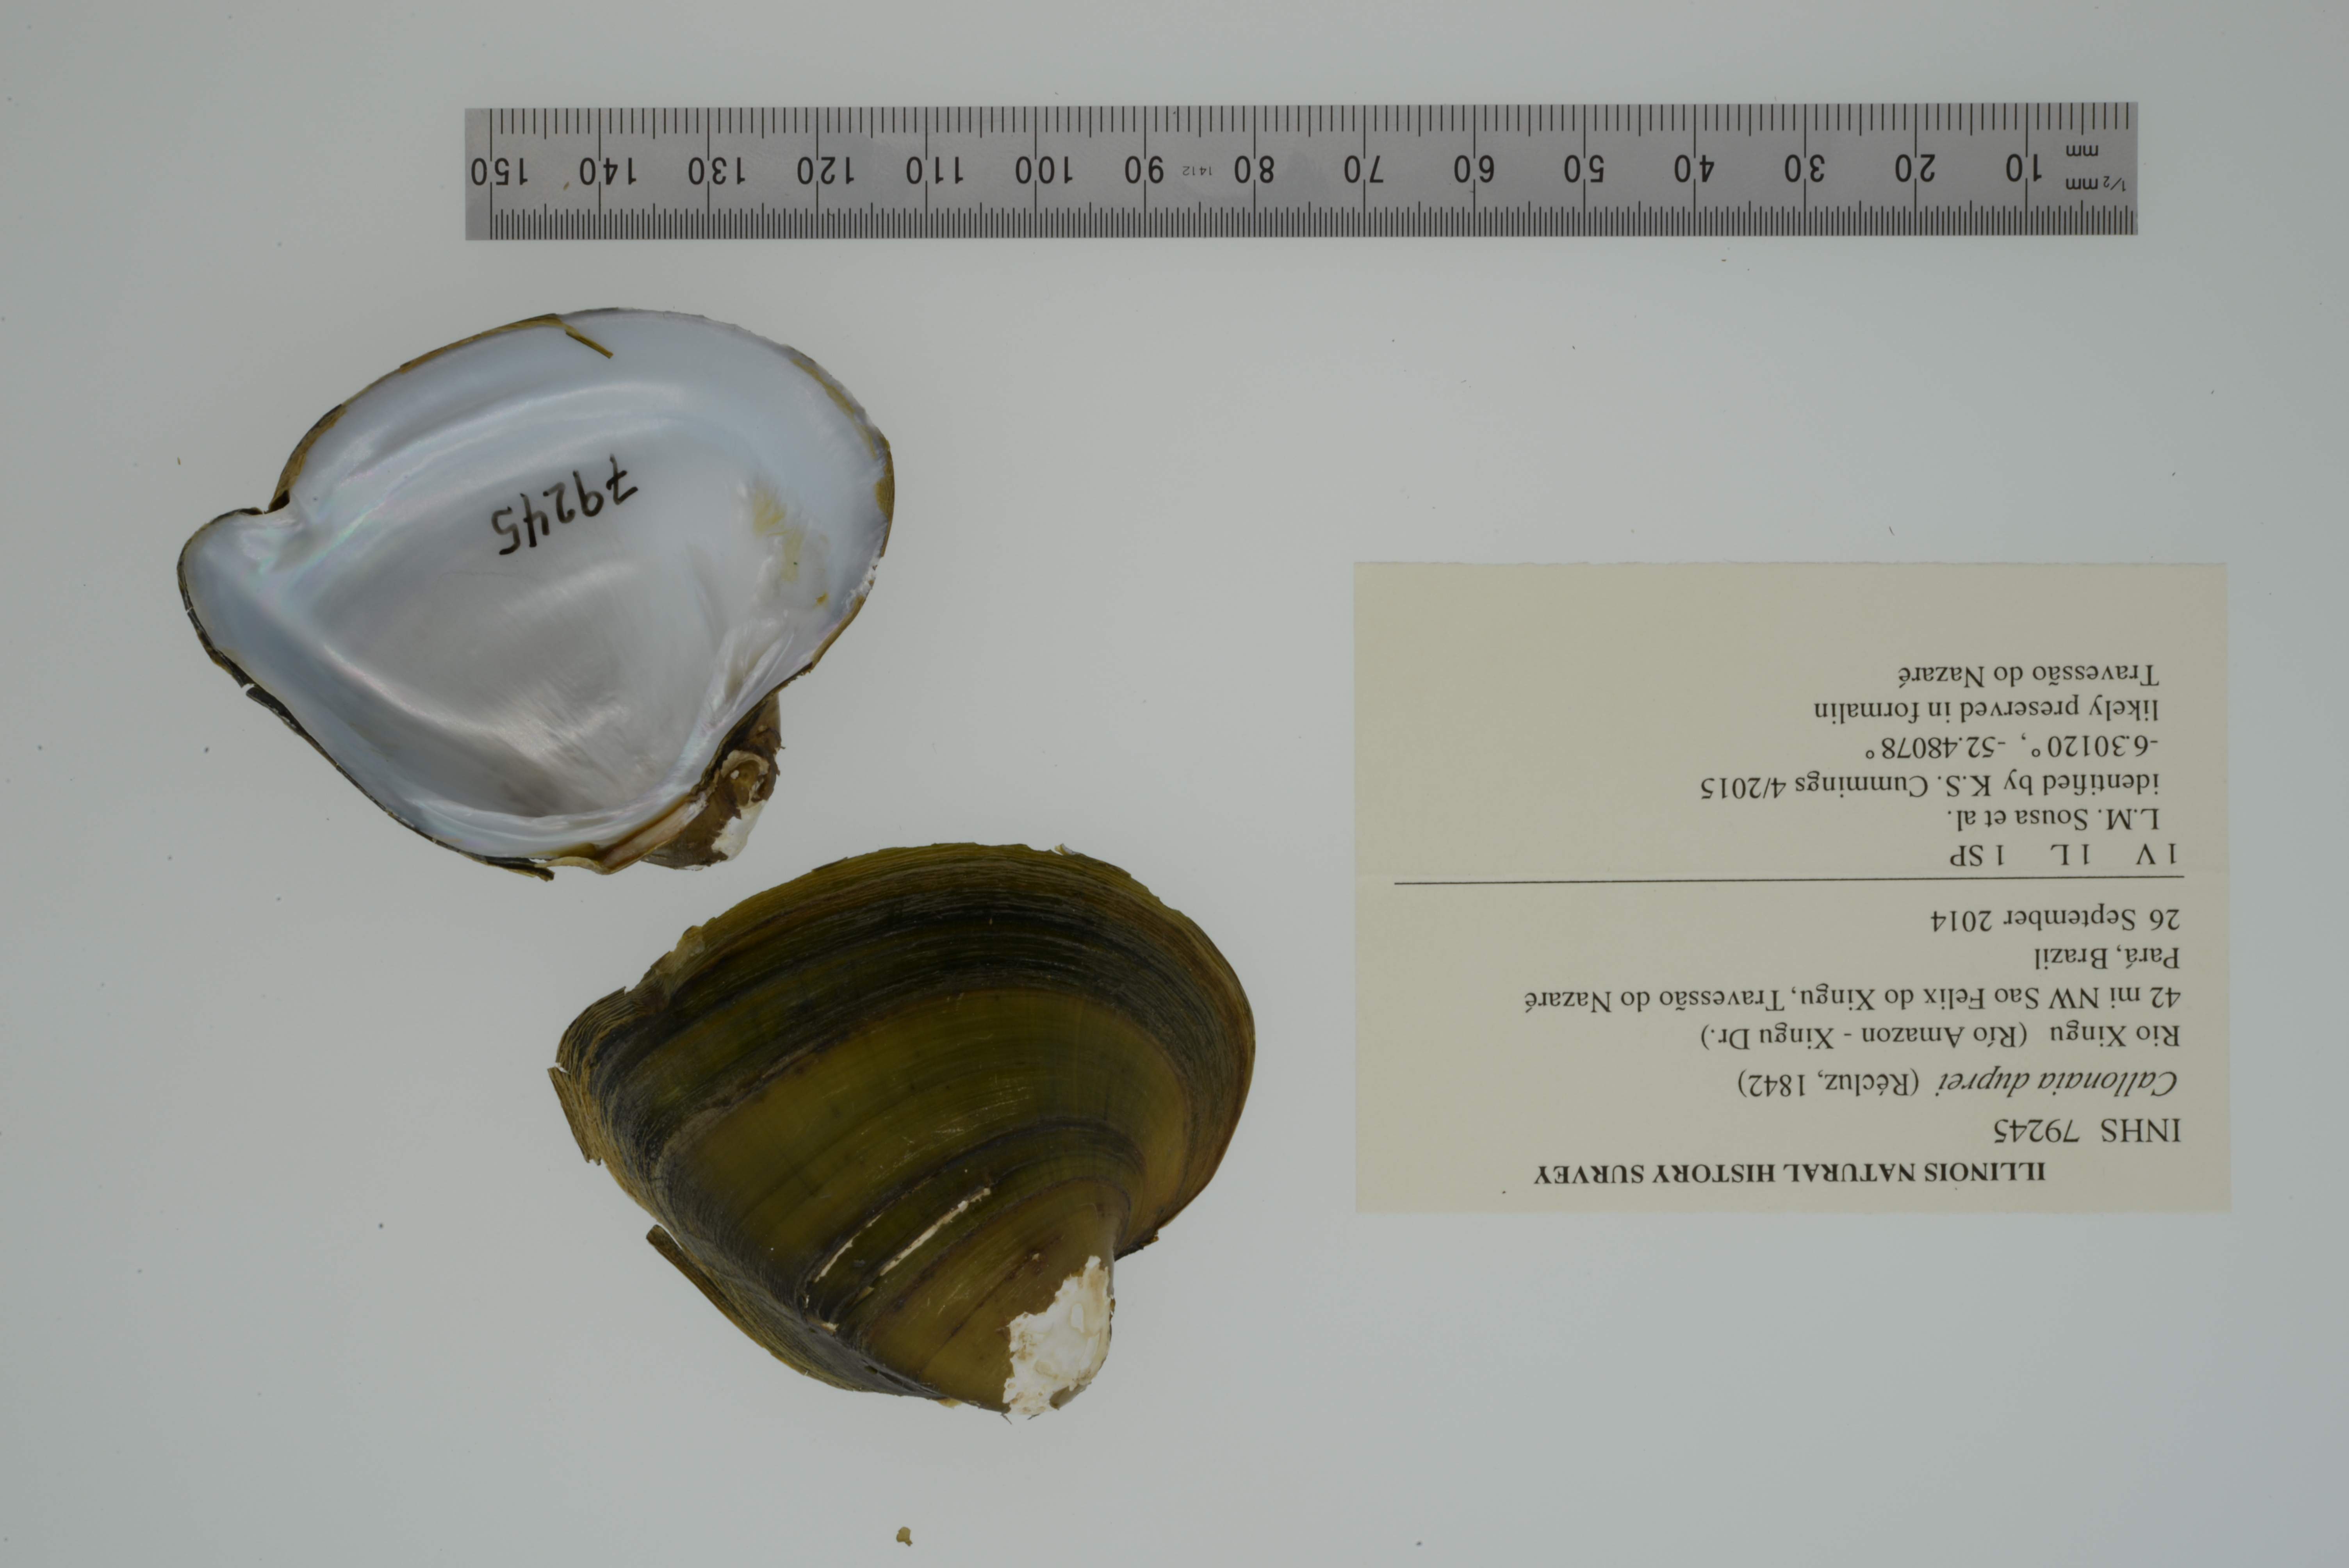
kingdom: Animalia
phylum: Mollusca
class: Bivalvia
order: Unionida
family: Hyriidae
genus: Callonaia
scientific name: Callonaia duprei
